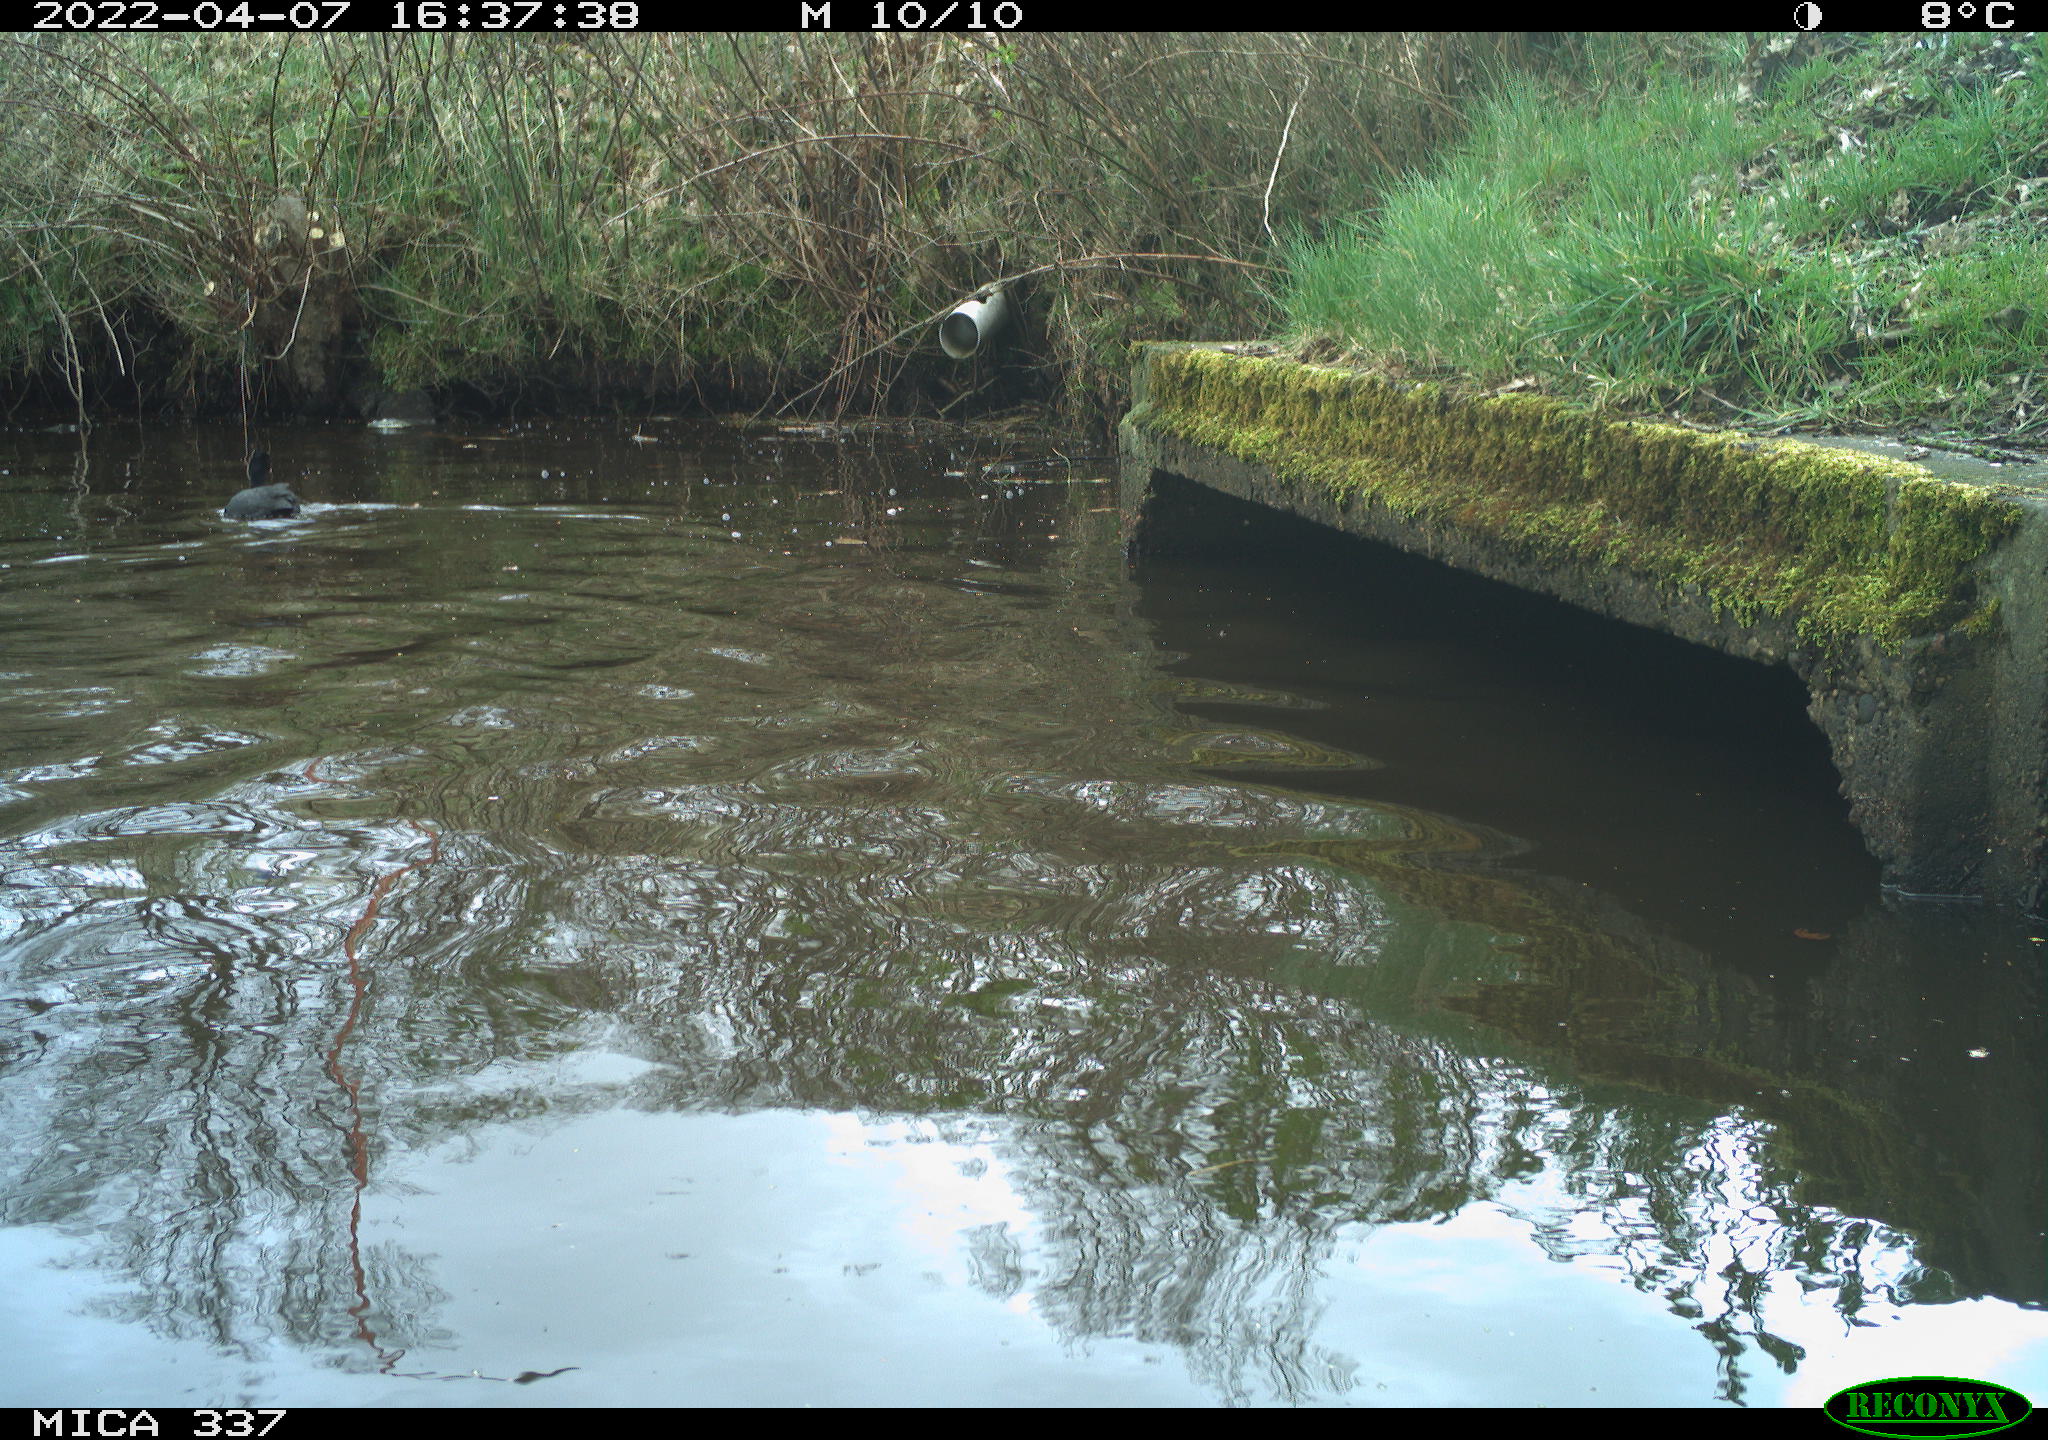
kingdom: Animalia
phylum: Chordata
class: Aves
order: Gruiformes
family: Rallidae
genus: Fulica
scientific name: Fulica atra
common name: Eurasian coot
